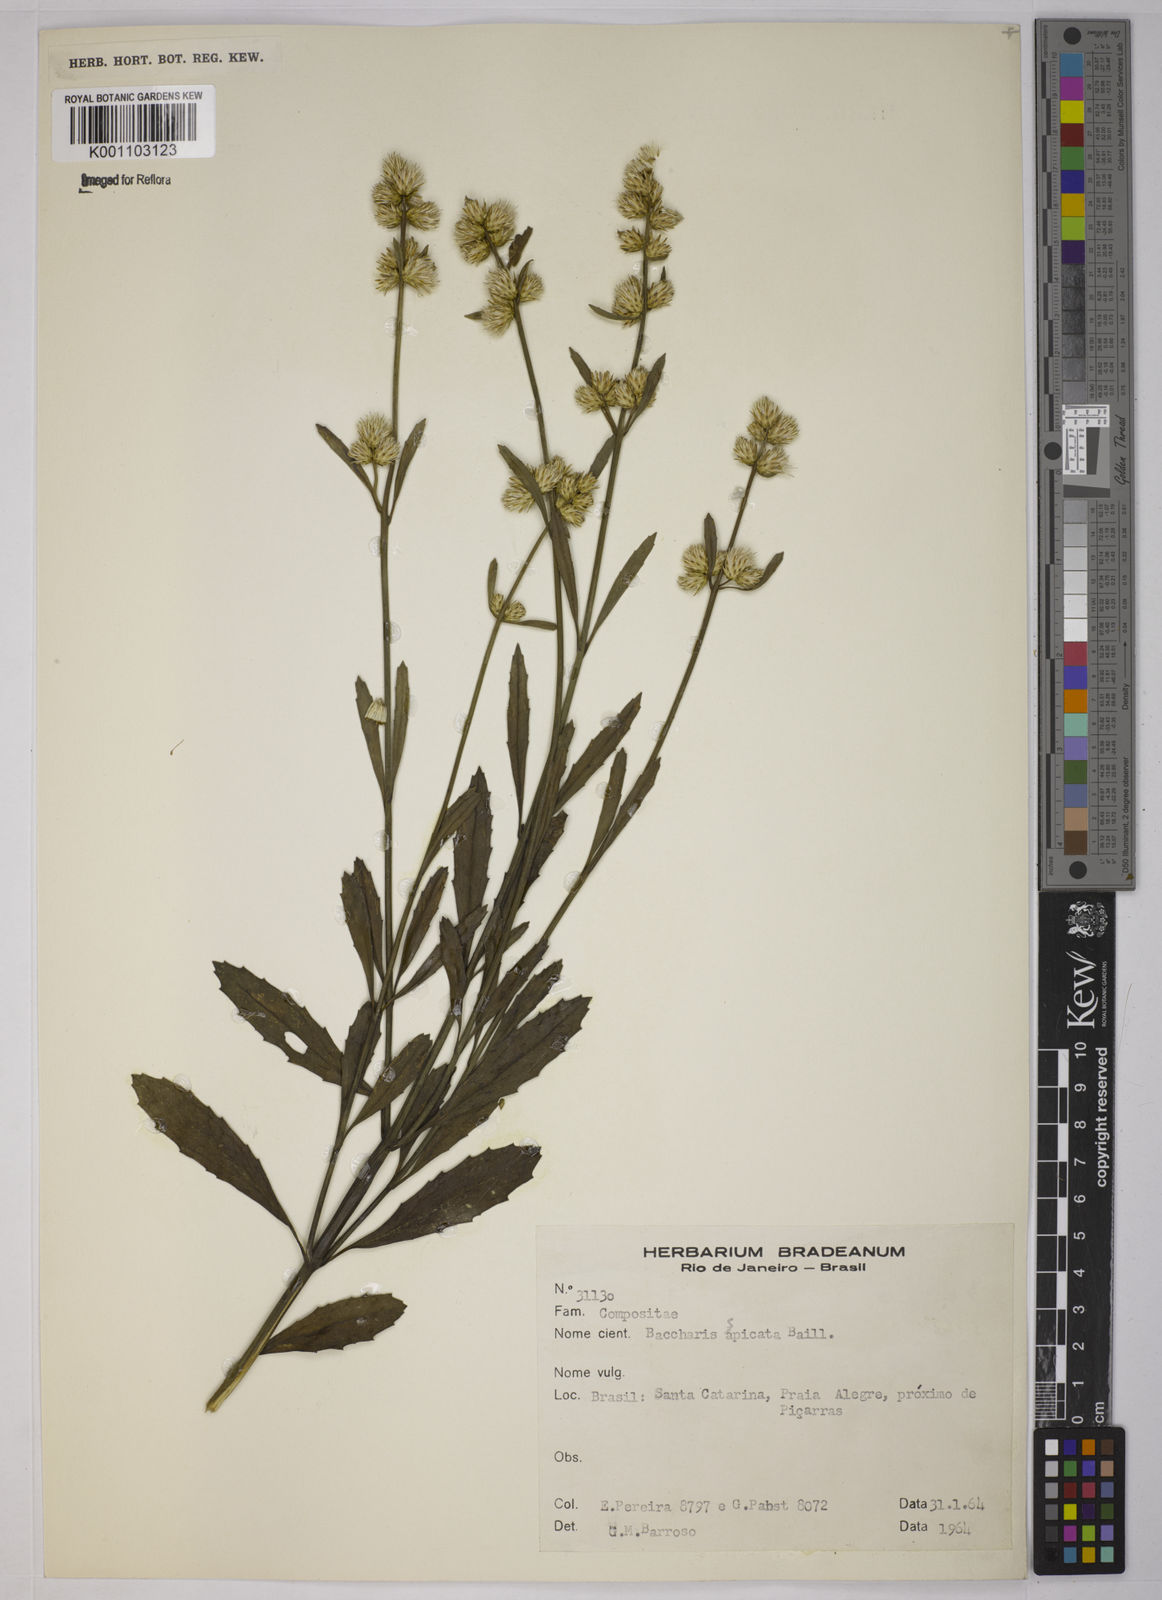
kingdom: Plantae
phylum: Tracheophyta
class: Magnoliopsida
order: Asterales
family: Asteraceae
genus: Baccharis
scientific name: Baccharis hieronymi
